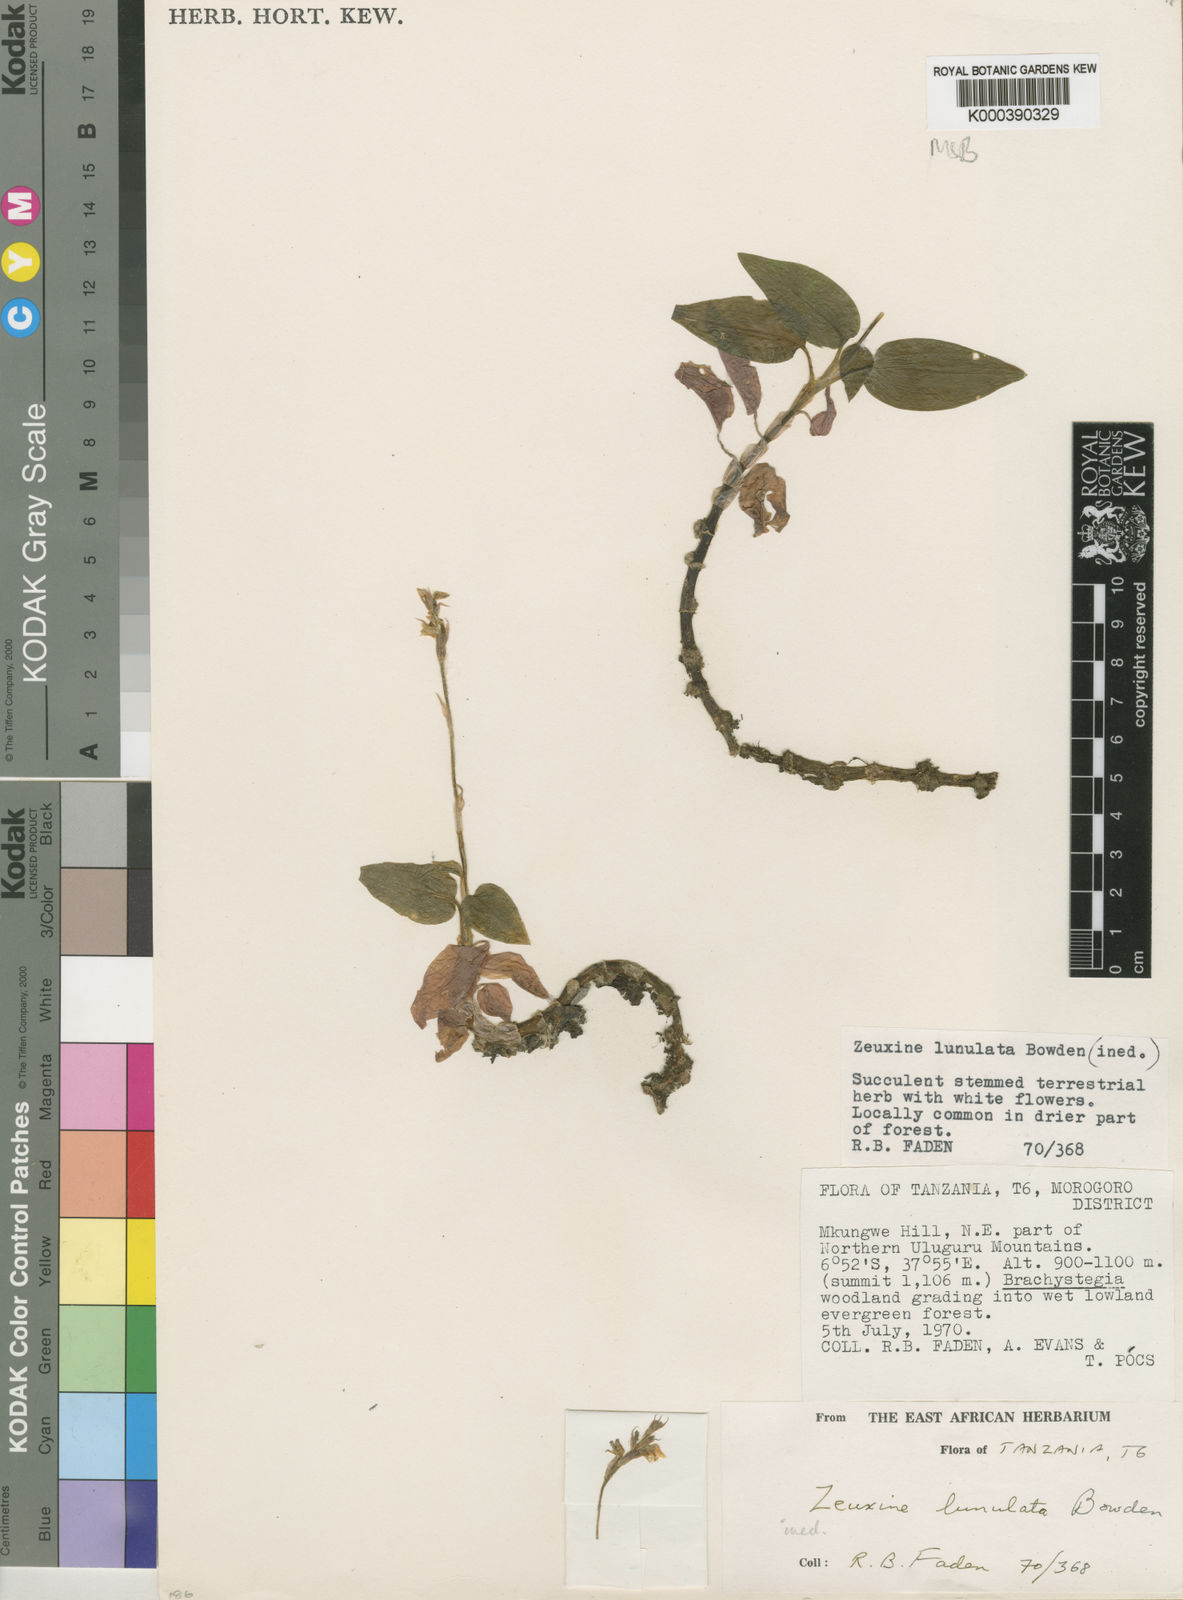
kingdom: Plantae
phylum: Tracheophyta
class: Liliopsida
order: Asparagales
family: Orchidaceae
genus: Zeuxine
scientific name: Zeuxine lunulata
